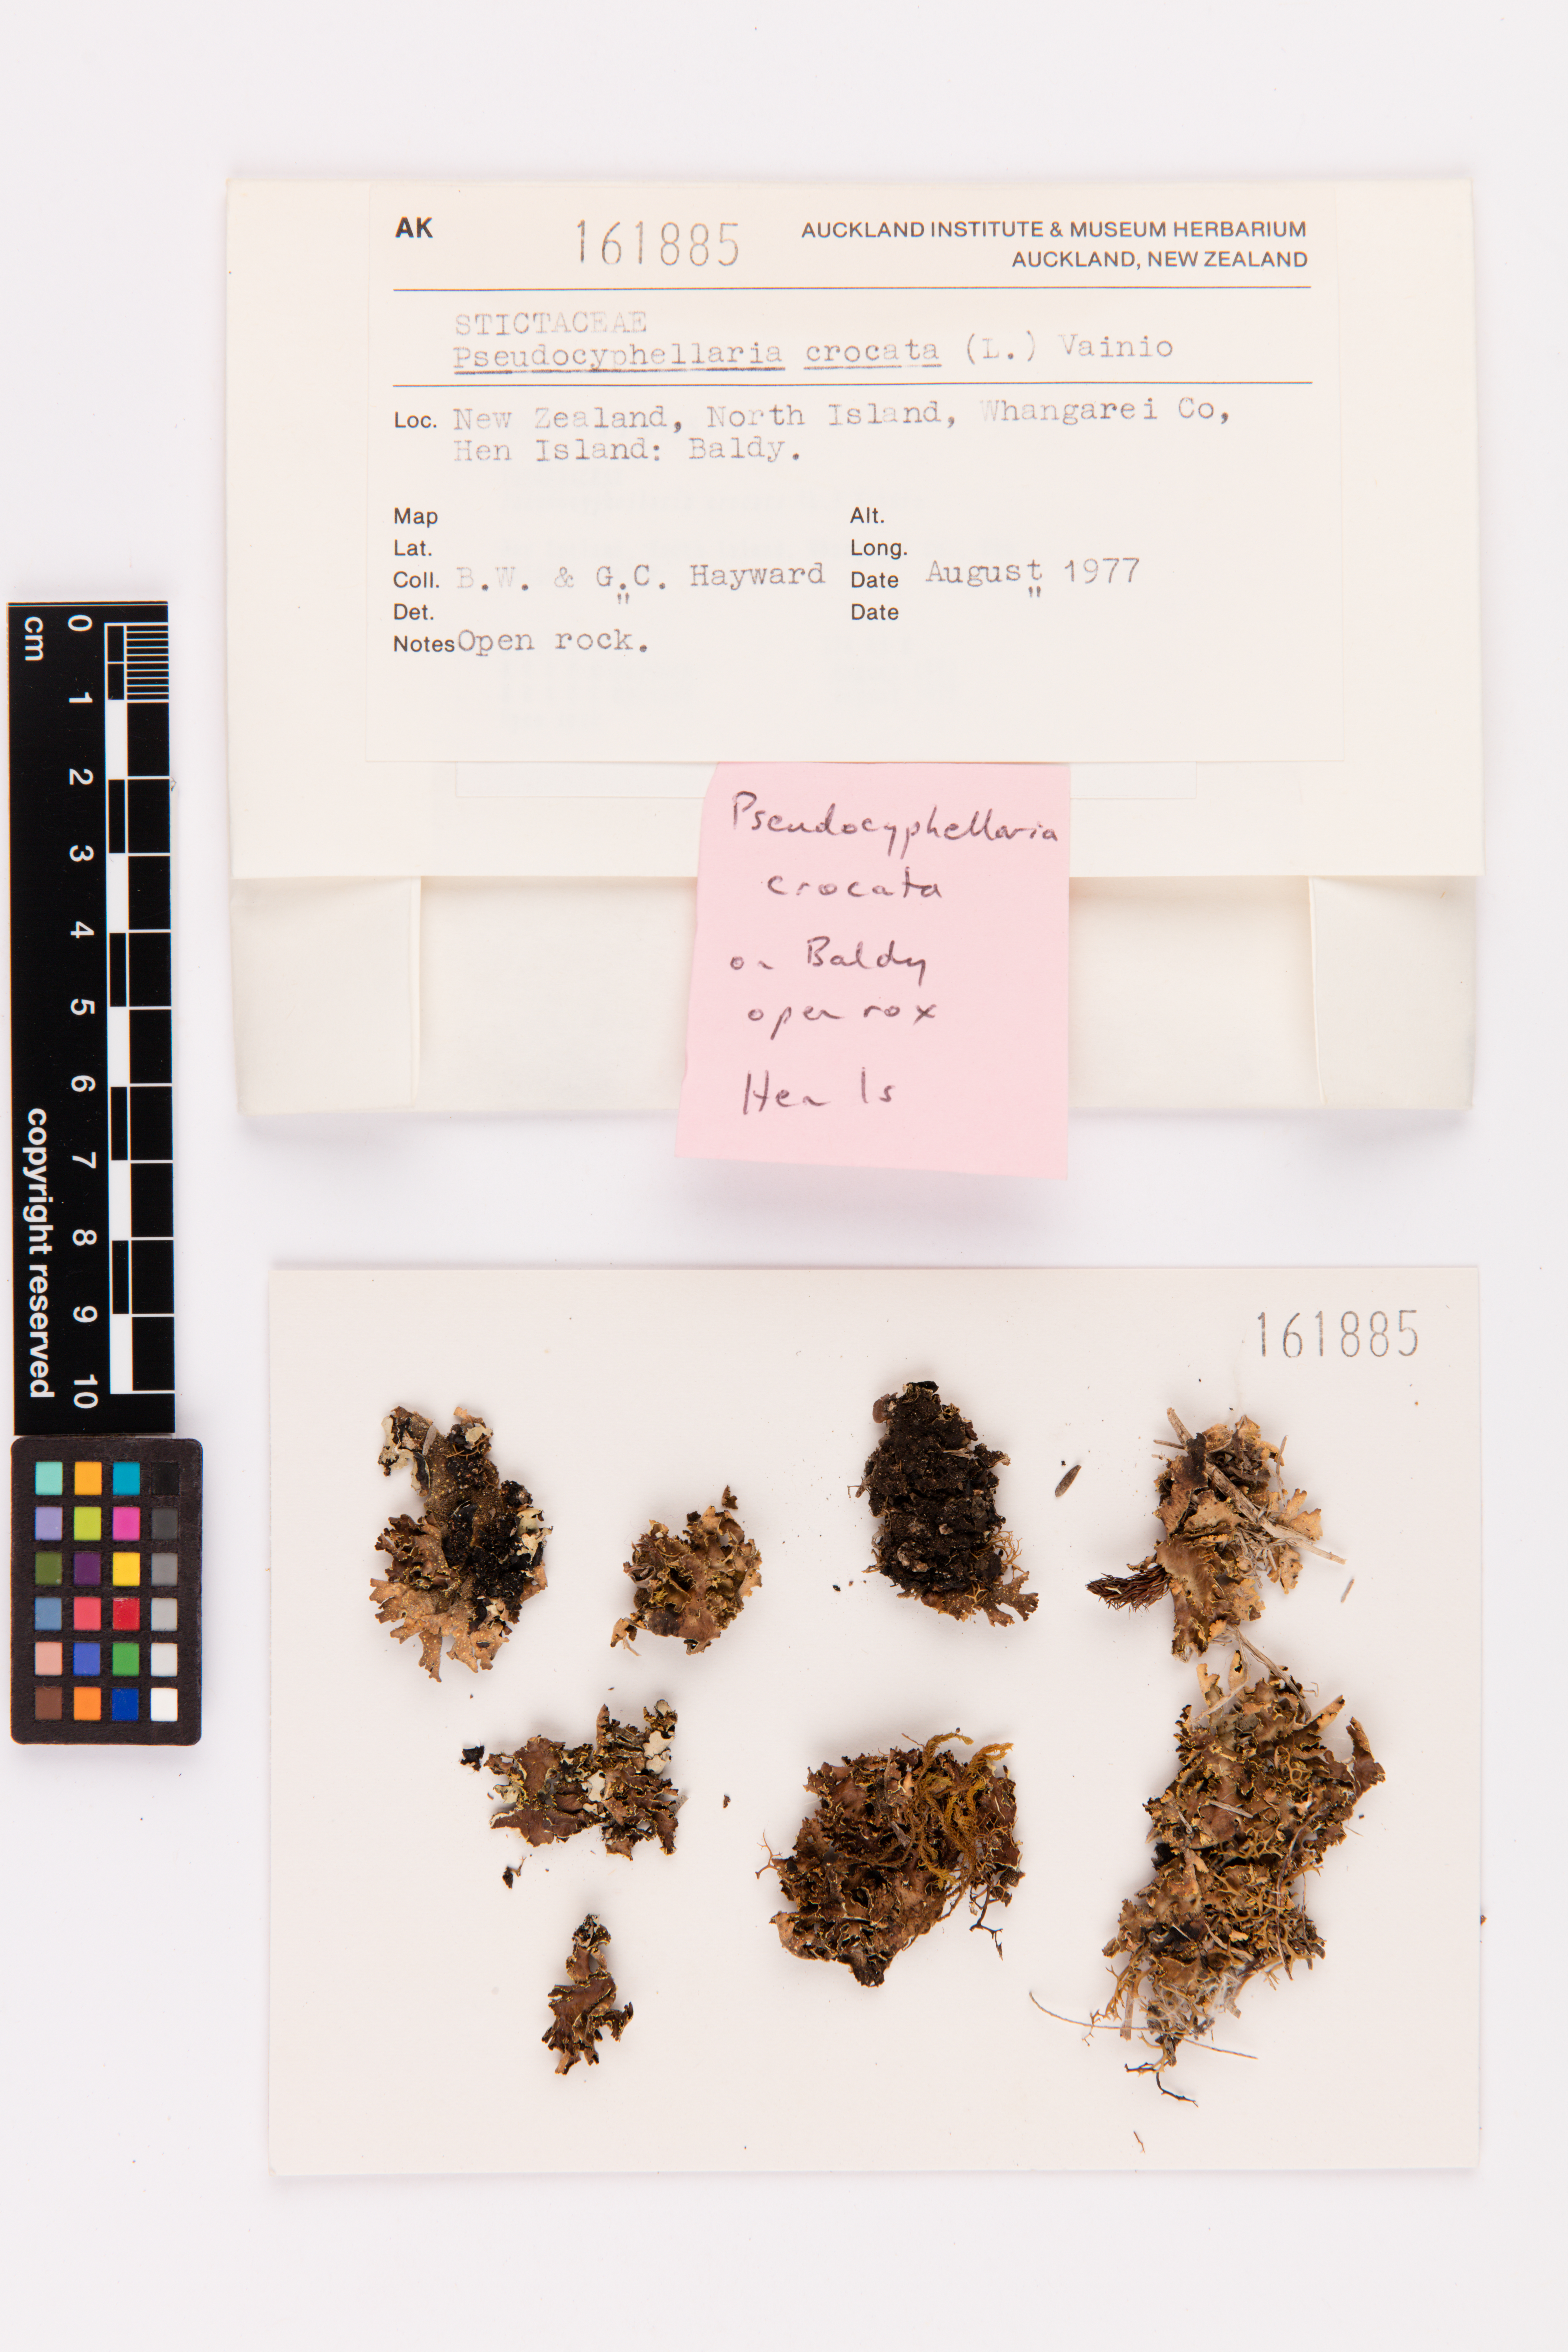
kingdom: Fungi
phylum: Ascomycota
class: Lecanoromycetes
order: Peltigerales
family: Lobariaceae
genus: Pseudocyphellaria
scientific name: Pseudocyphellaria crocata
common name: Golden specklebelly
